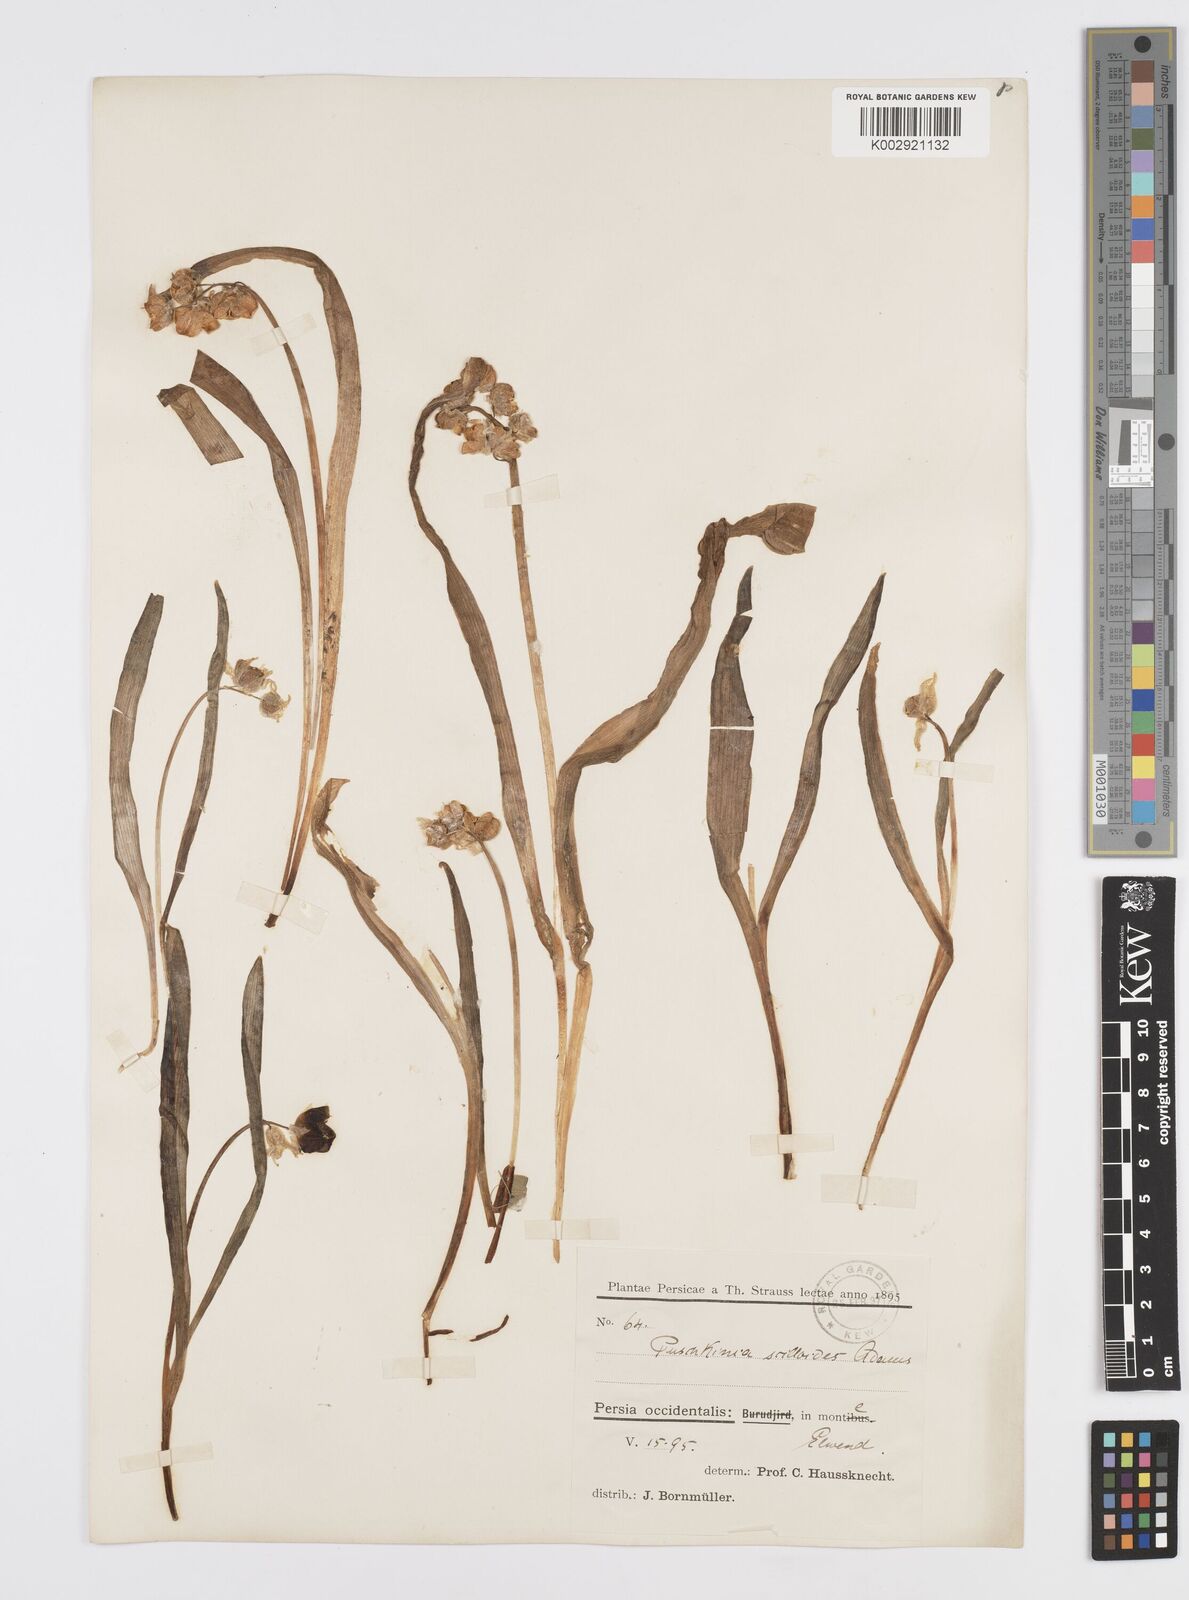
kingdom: Plantae
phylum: Tracheophyta
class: Liliopsida
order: Asparagales
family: Asparagaceae
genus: Puschkinia
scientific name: Puschkinia scilloides
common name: Striped squill
